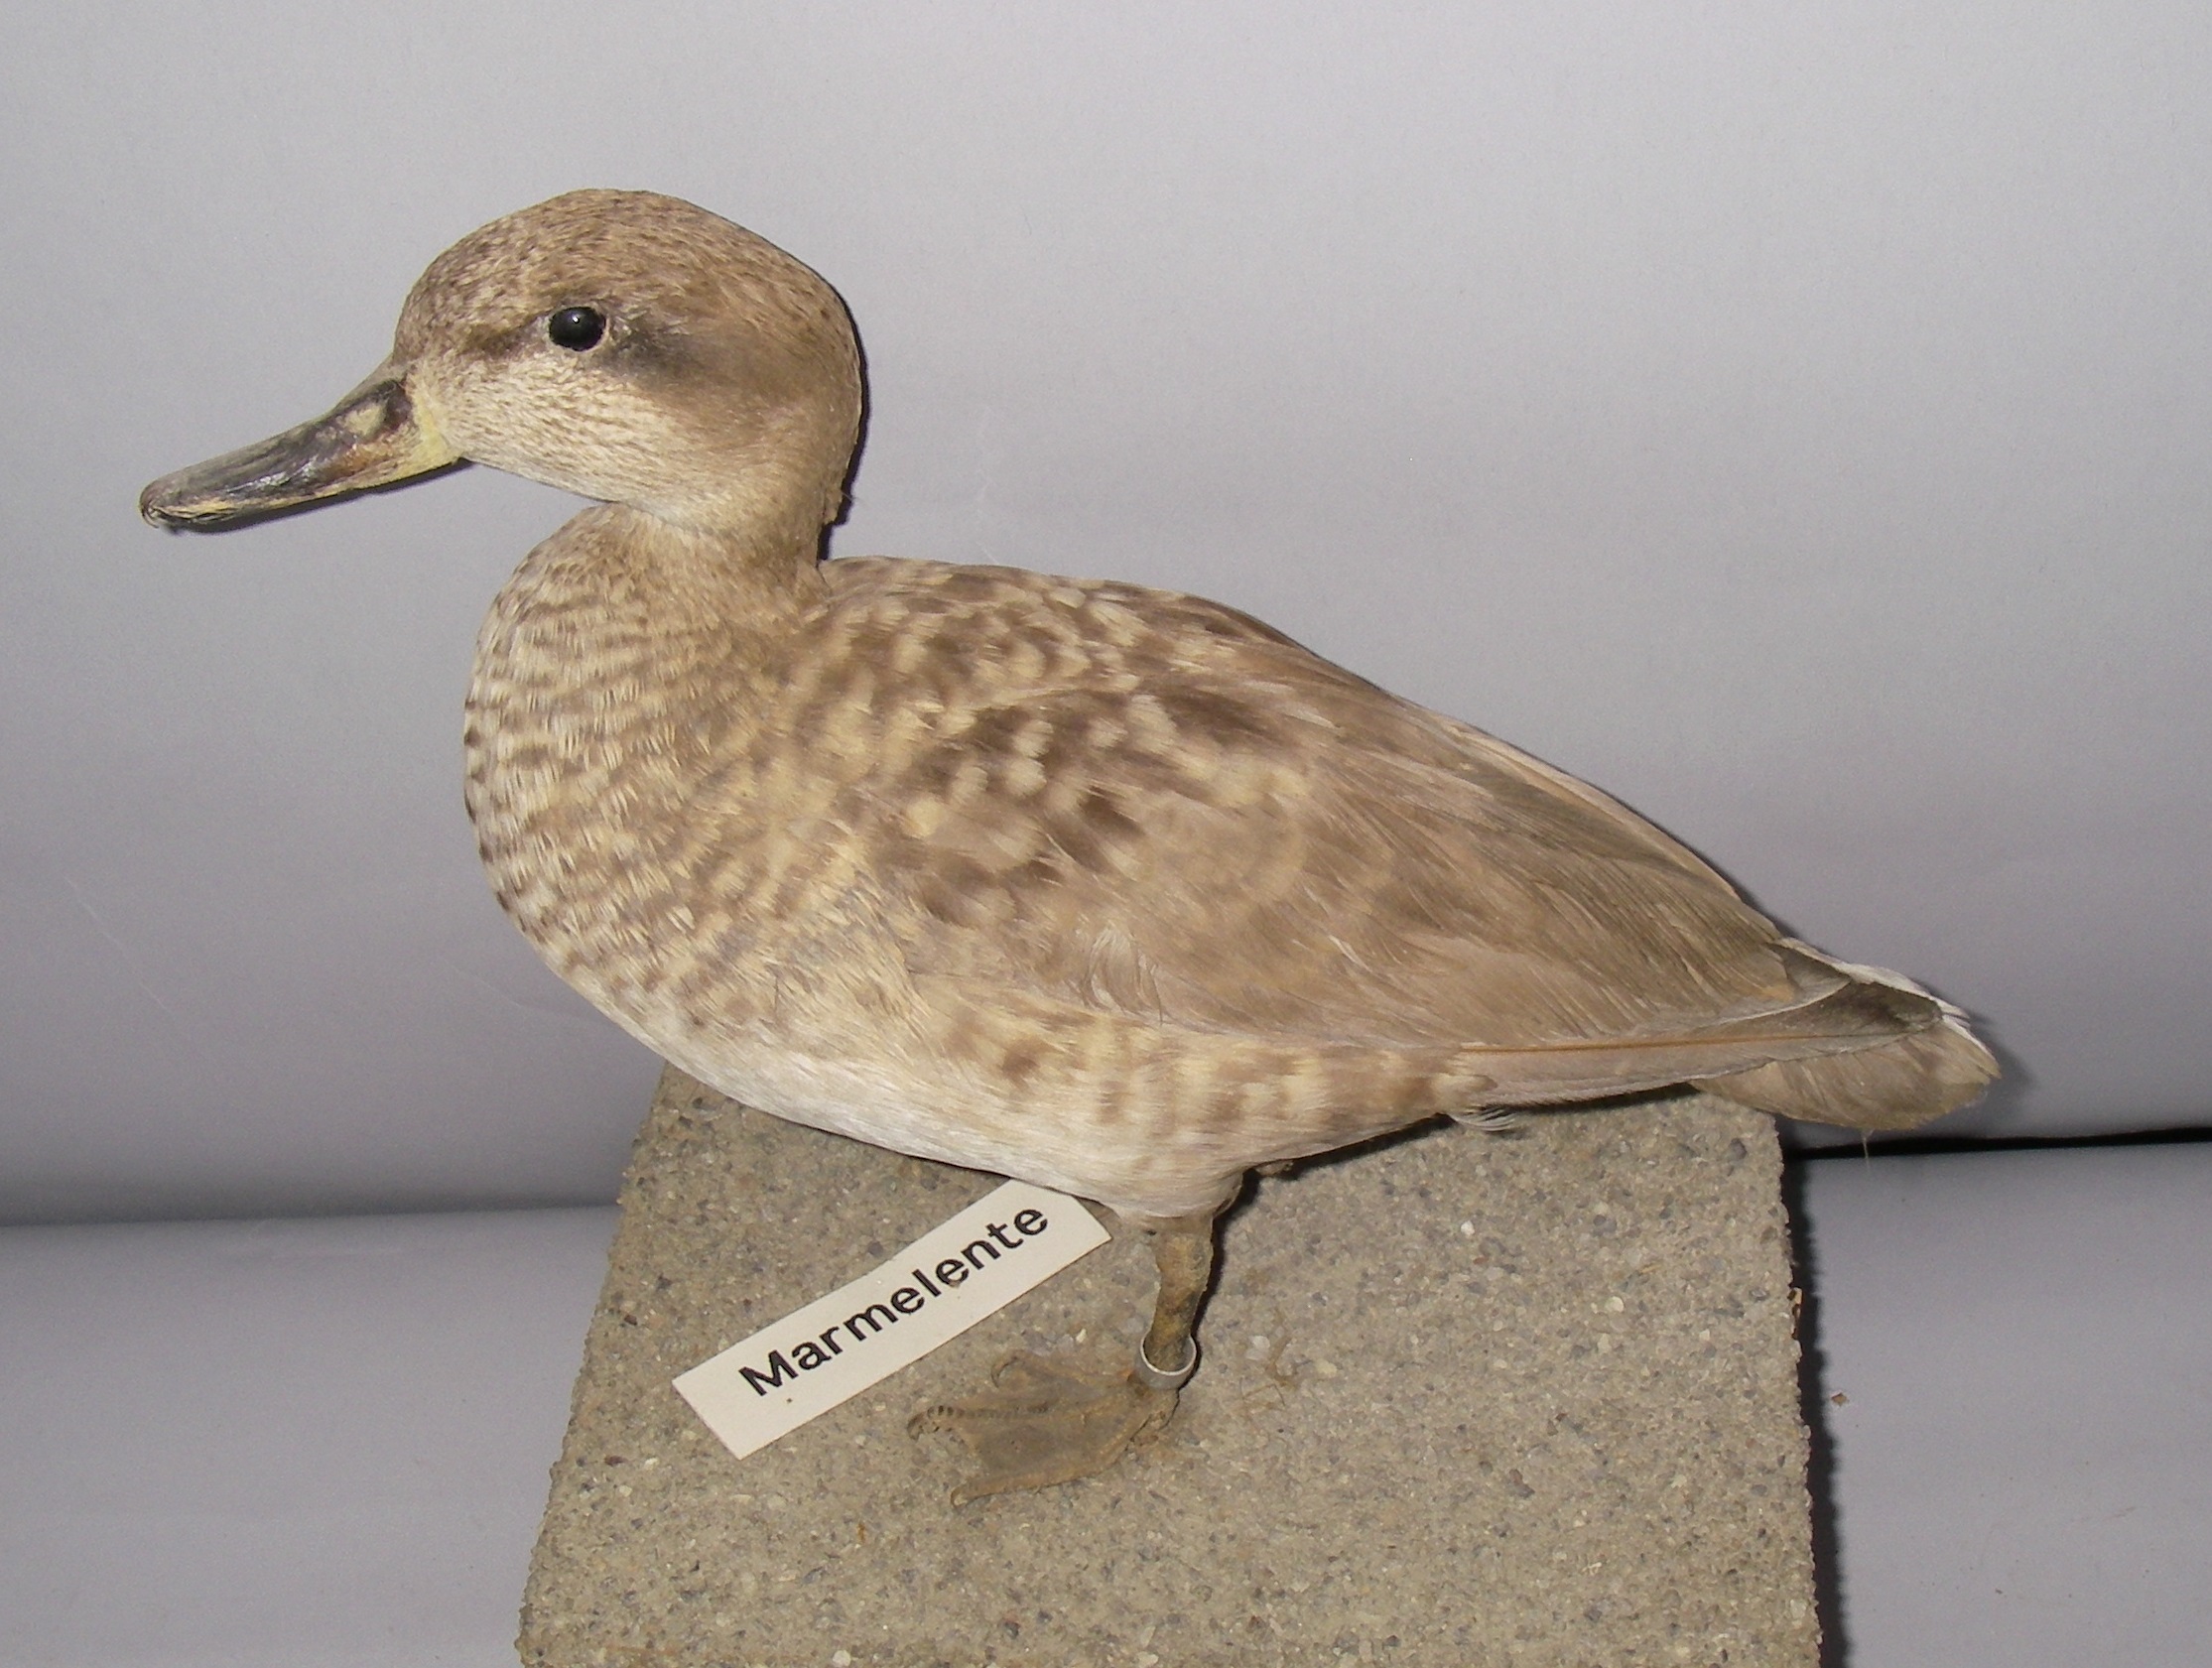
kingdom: Animalia
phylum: Chordata
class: Aves
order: Anseriformes
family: Anatidae
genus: Marmaronetta
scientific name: Marmaronetta angustirostris
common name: Marbled duck
